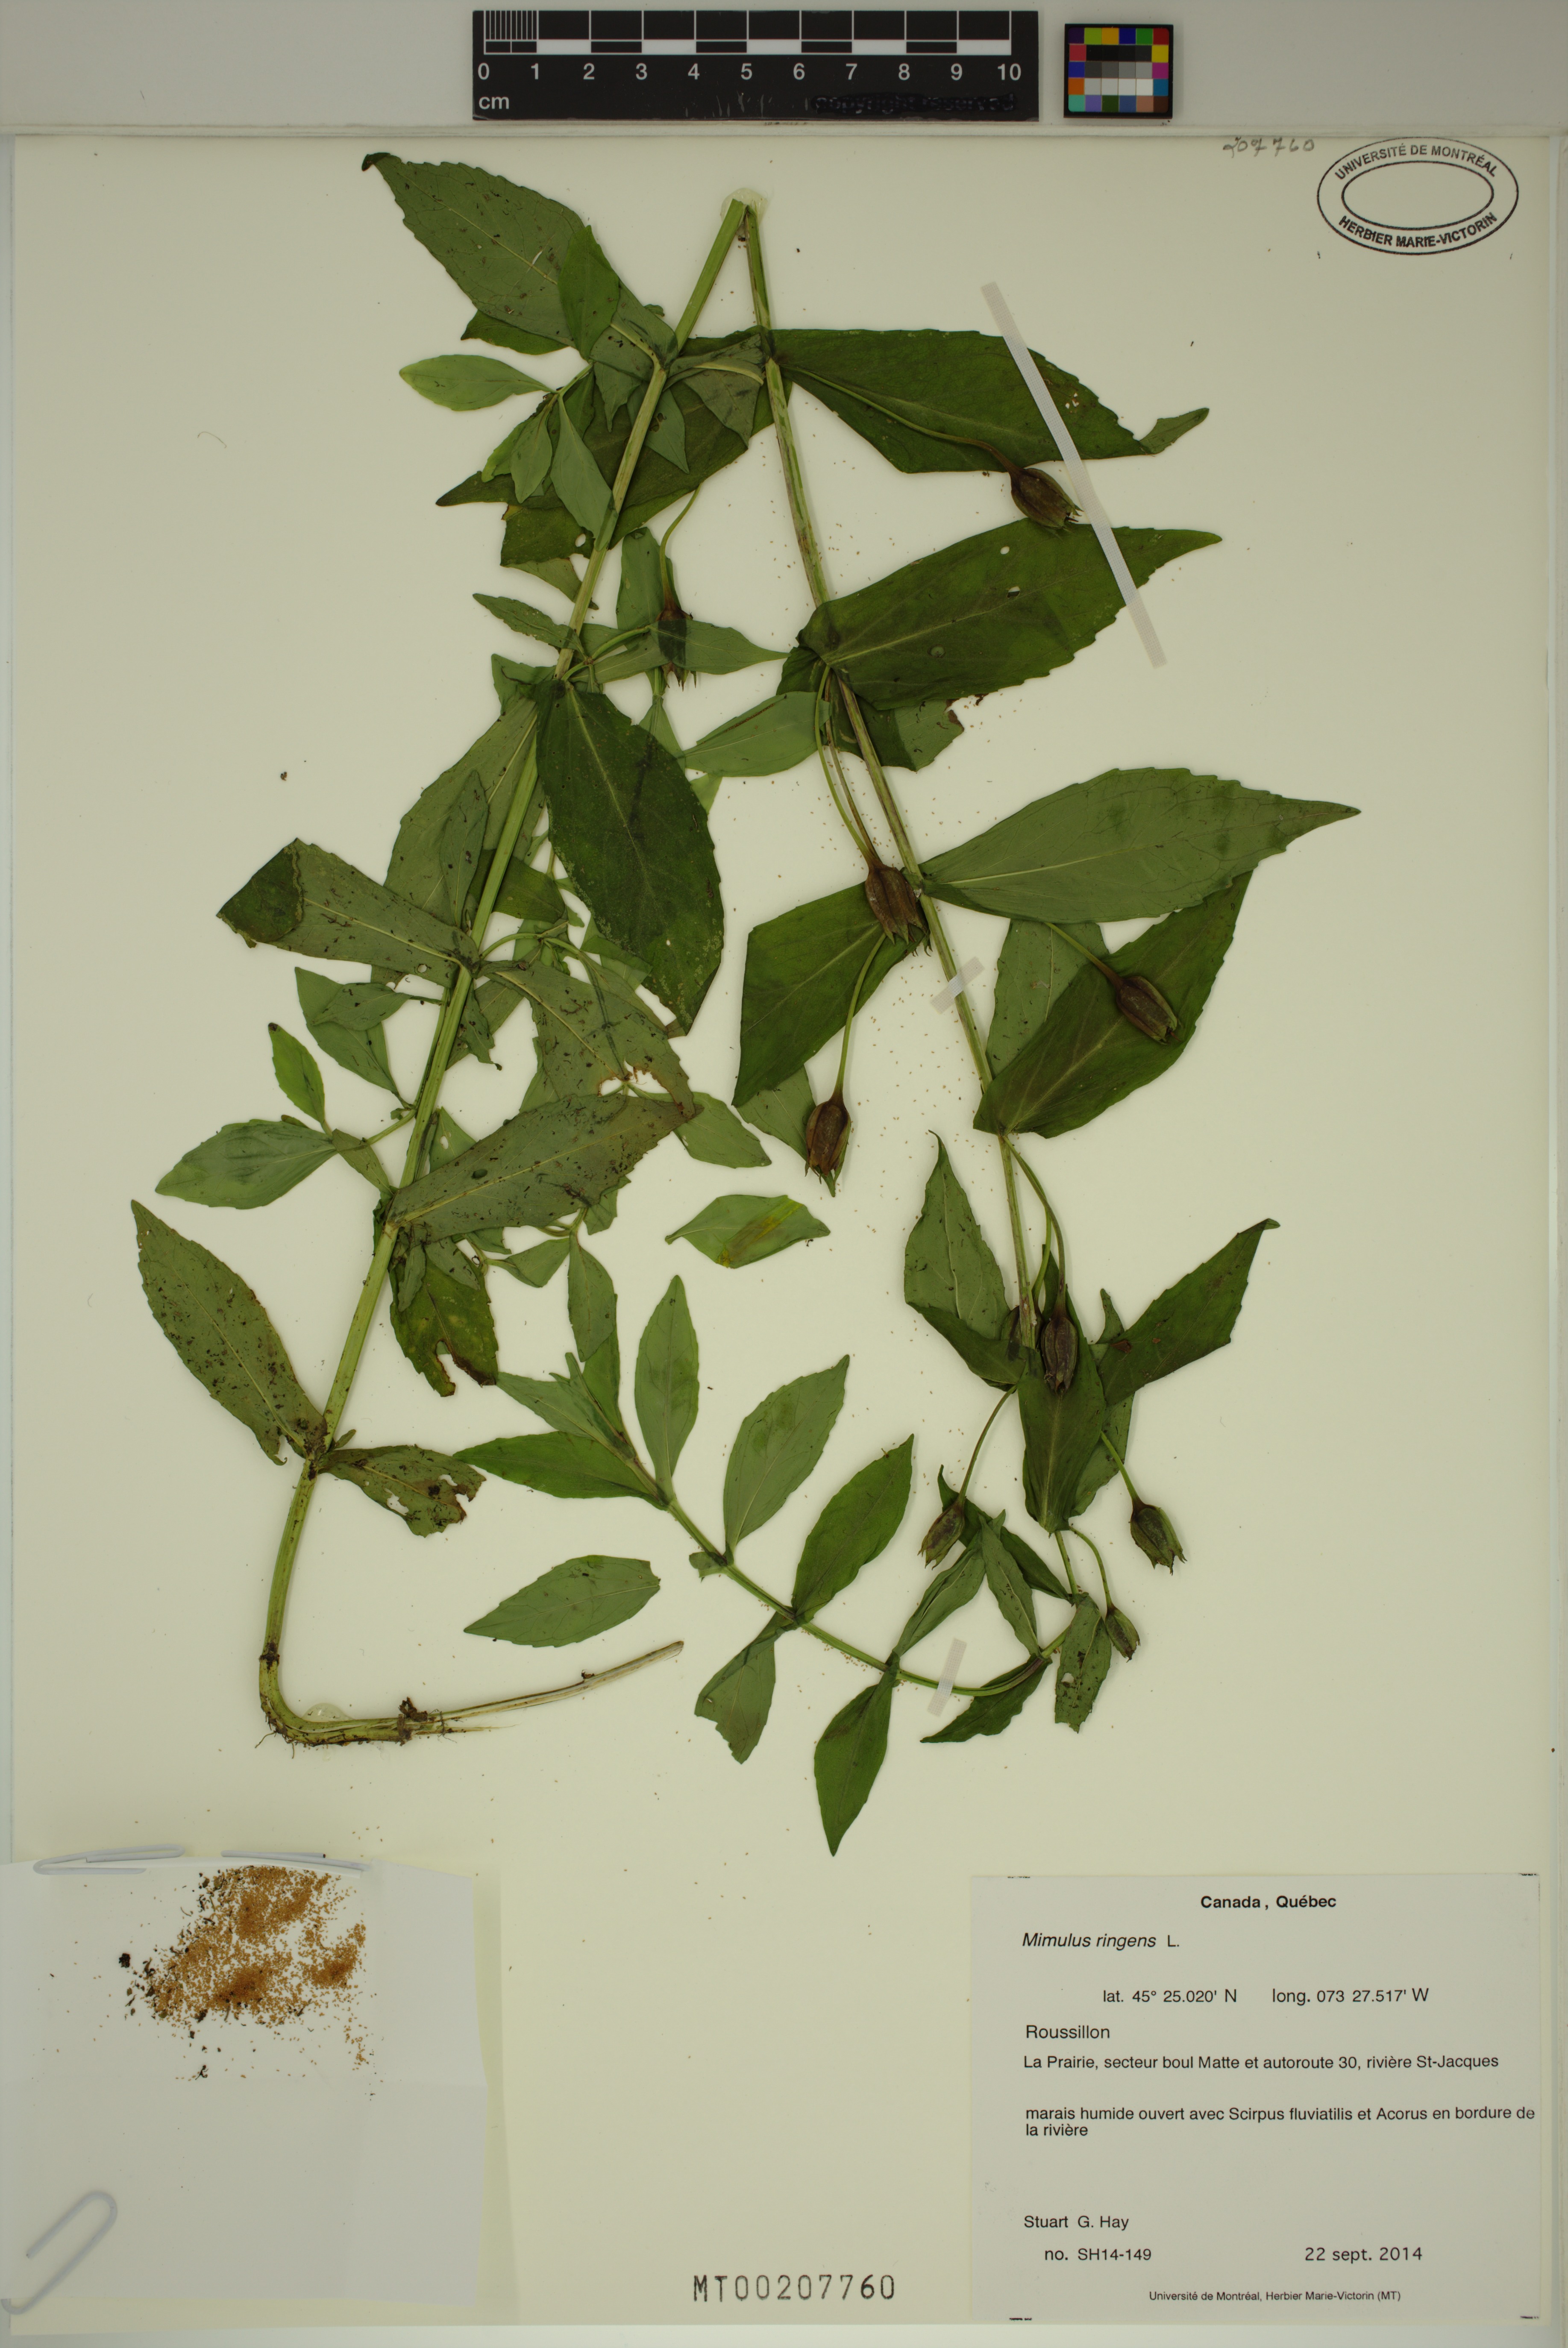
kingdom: Plantae
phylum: Tracheophyta
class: Magnoliopsida
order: Lamiales
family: Phrymaceae
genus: Mimulus
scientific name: Mimulus ringens
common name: Allegheny monkeyflower
